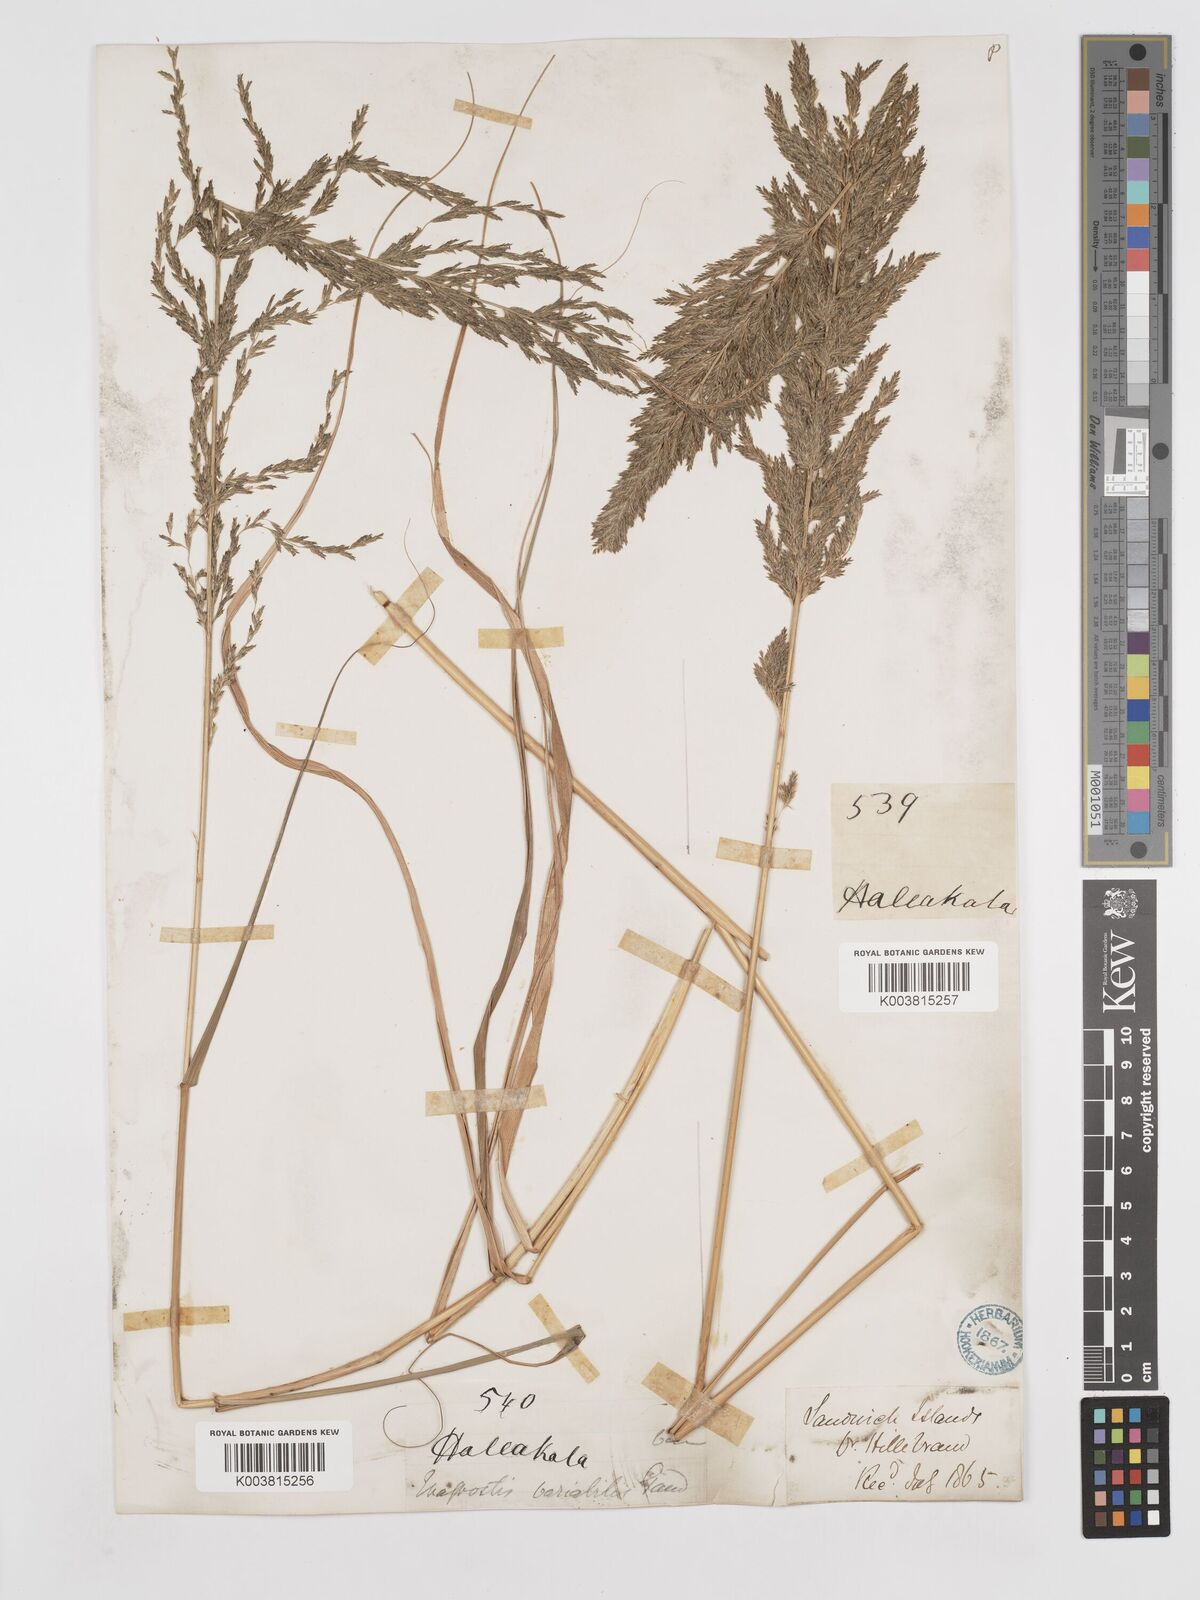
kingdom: Plantae
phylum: Tracheophyta
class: Liliopsida
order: Poales
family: Poaceae
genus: Eragrostis
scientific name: Eragrostis variabilis
